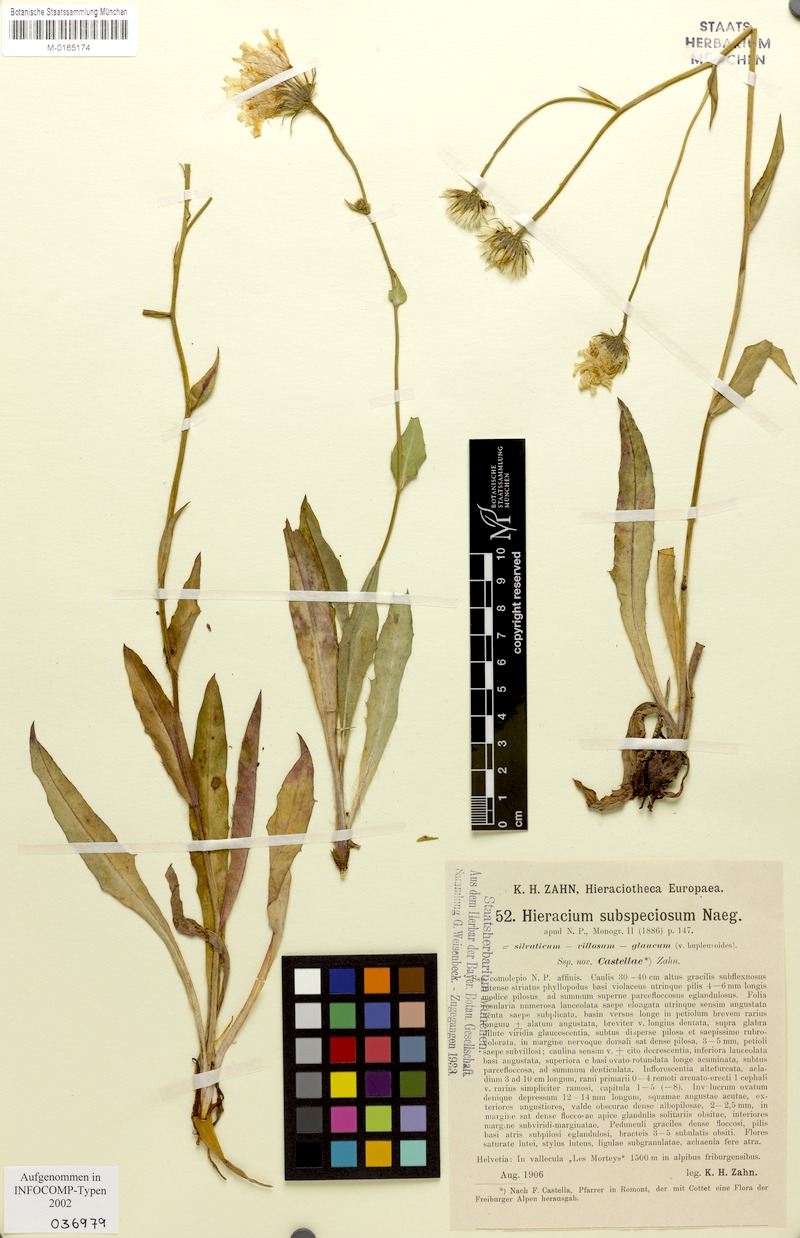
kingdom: Plantae
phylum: Tracheophyta
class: Magnoliopsida
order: Asterales
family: Asteraceae
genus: Hieracium
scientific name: Hieracium subspeciosum
